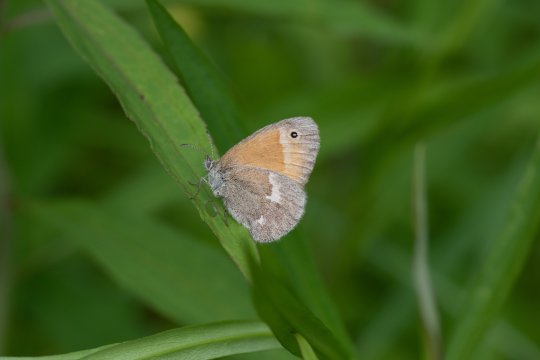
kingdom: Animalia
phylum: Arthropoda
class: Insecta
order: Lepidoptera
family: Nymphalidae
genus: Coenonympha
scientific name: Coenonympha tullia
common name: Large Heath
